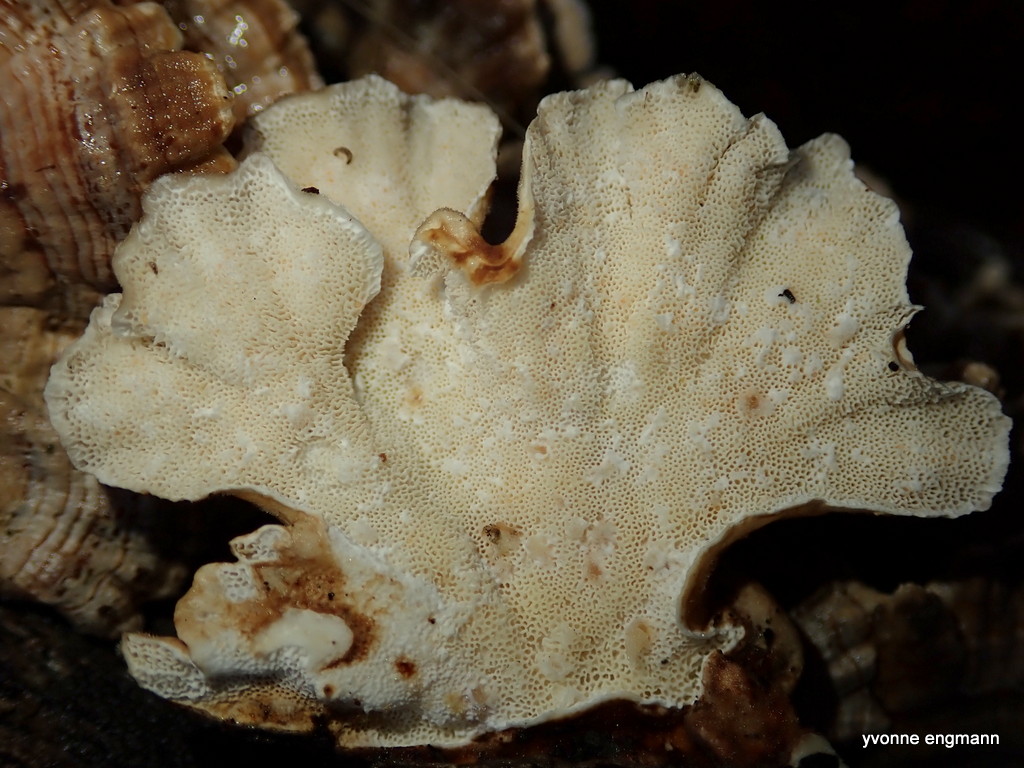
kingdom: Fungi
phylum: Basidiomycota
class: Agaricomycetes
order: Polyporales
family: Polyporaceae
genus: Trametes
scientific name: Trametes versicolor
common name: broget læderporesvamp
